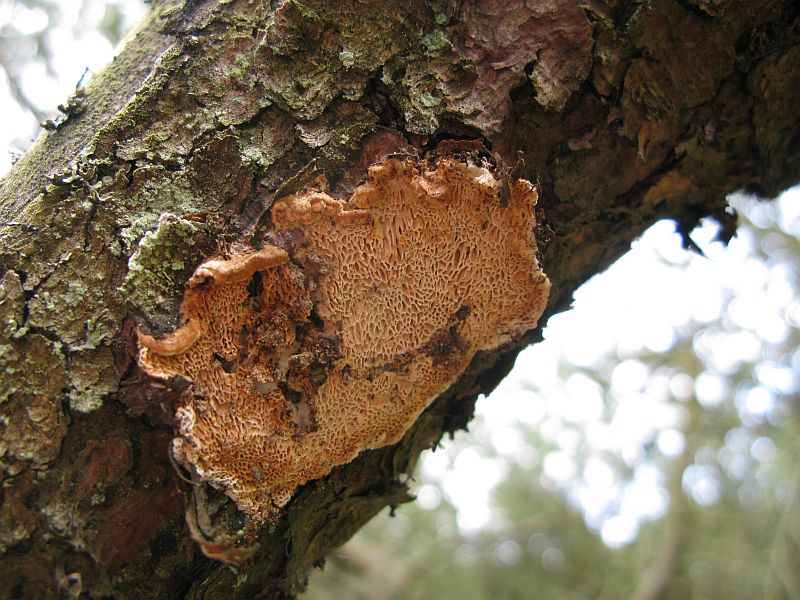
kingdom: Fungi
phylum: Basidiomycota
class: Agaricomycetes
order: Polyporales
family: Fomitopsidaceae
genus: Fomitopsis
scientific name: Fomitopsis
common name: fyrre-skiveporesvamp
